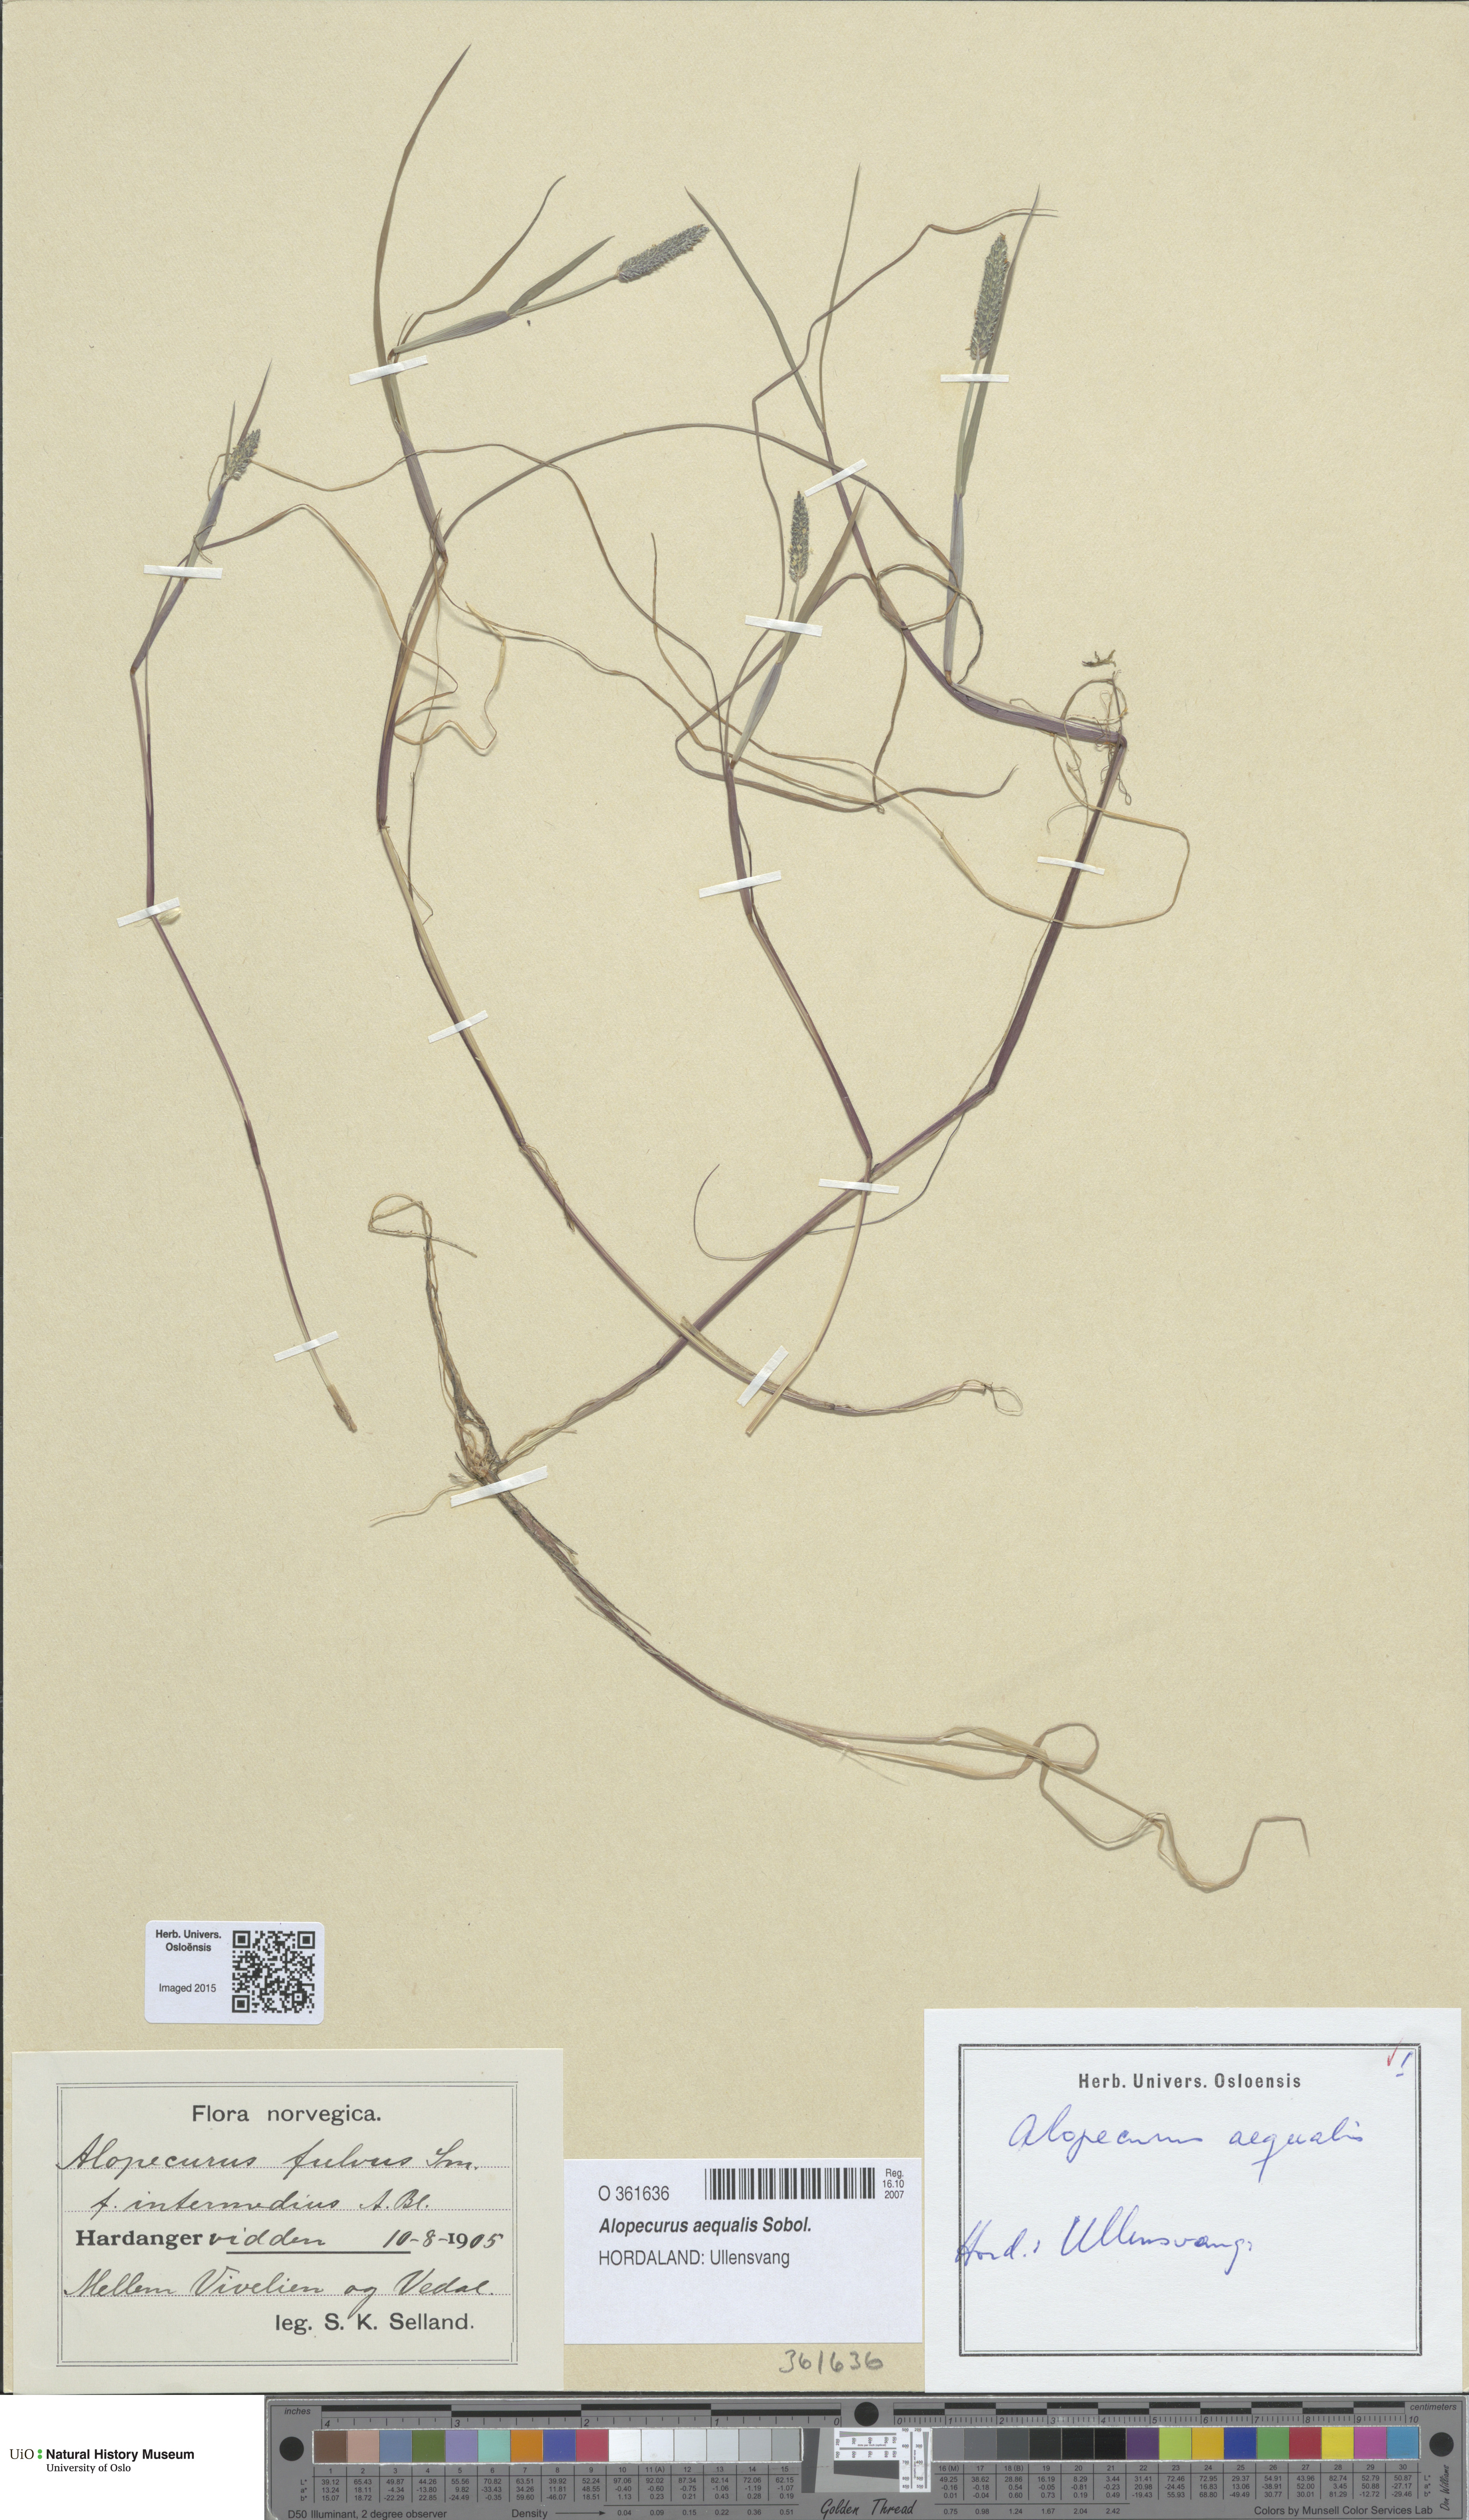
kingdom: Plantae
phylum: Tracheophyta
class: Liliopsida
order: Poales
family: Poaceae
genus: Alopecurus
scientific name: Alopecurus aequalis
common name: Orange foxtail
